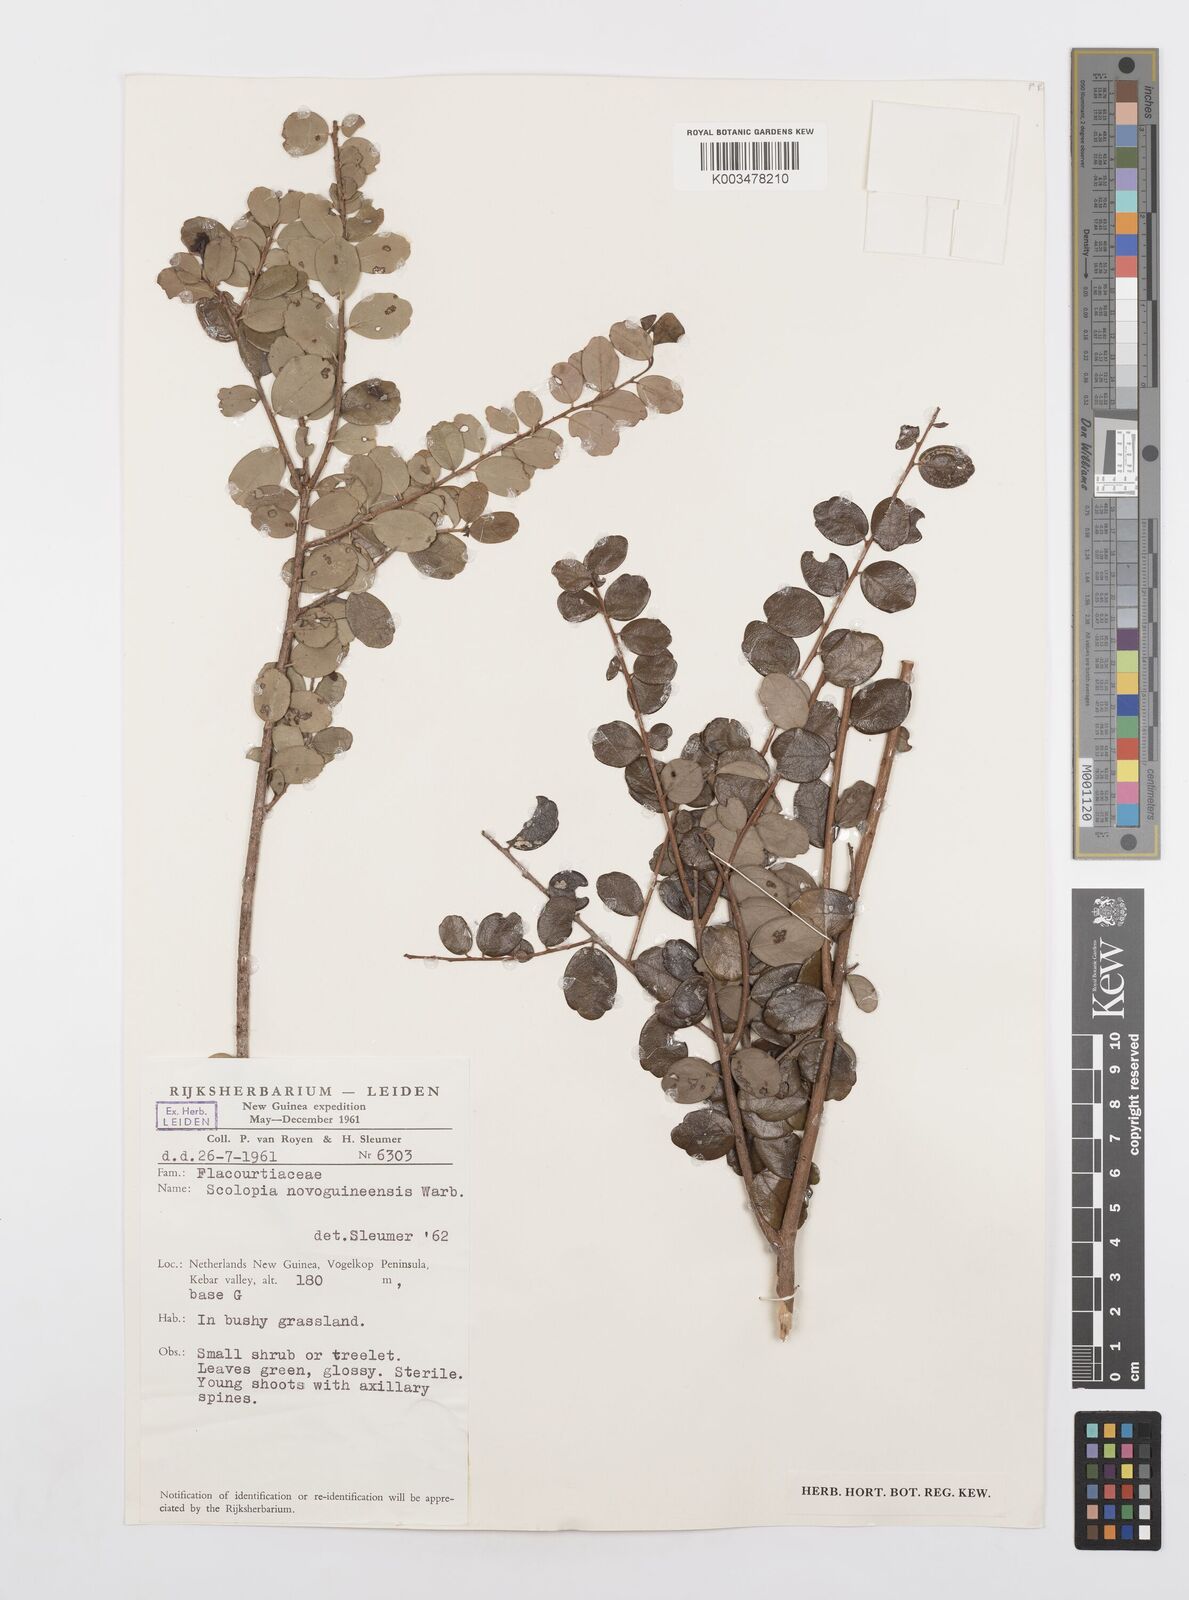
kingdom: Plantae
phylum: Tracheophyta
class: Magnoliopsida
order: Malpighiales
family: Salicaceae
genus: Scolopia
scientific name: Scolopia novoguineensis
